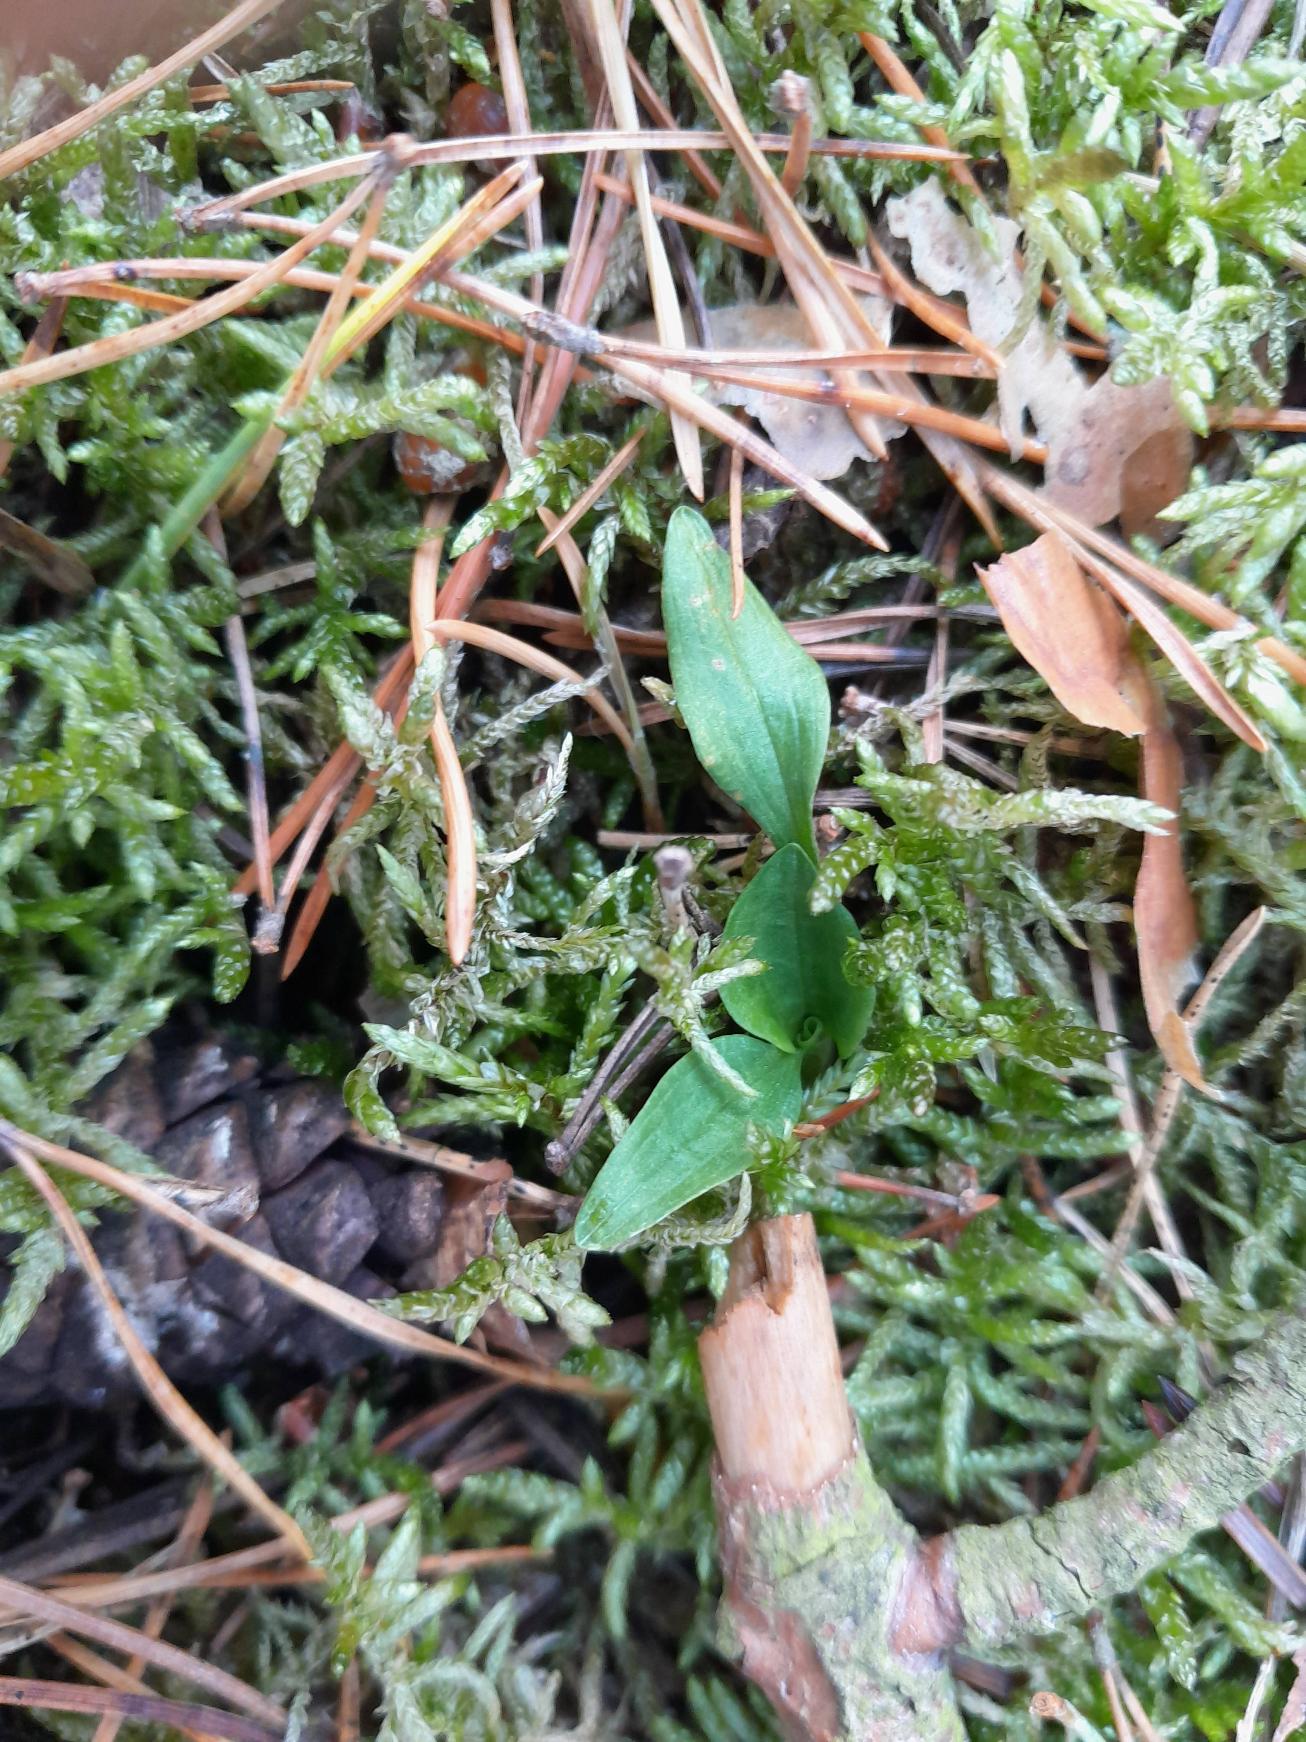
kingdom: Plantae
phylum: Tracheophyta
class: Liliopsida
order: Asparagales
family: Orchidaceae
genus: Goodyera
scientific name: Goodyera repens
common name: Knærod
